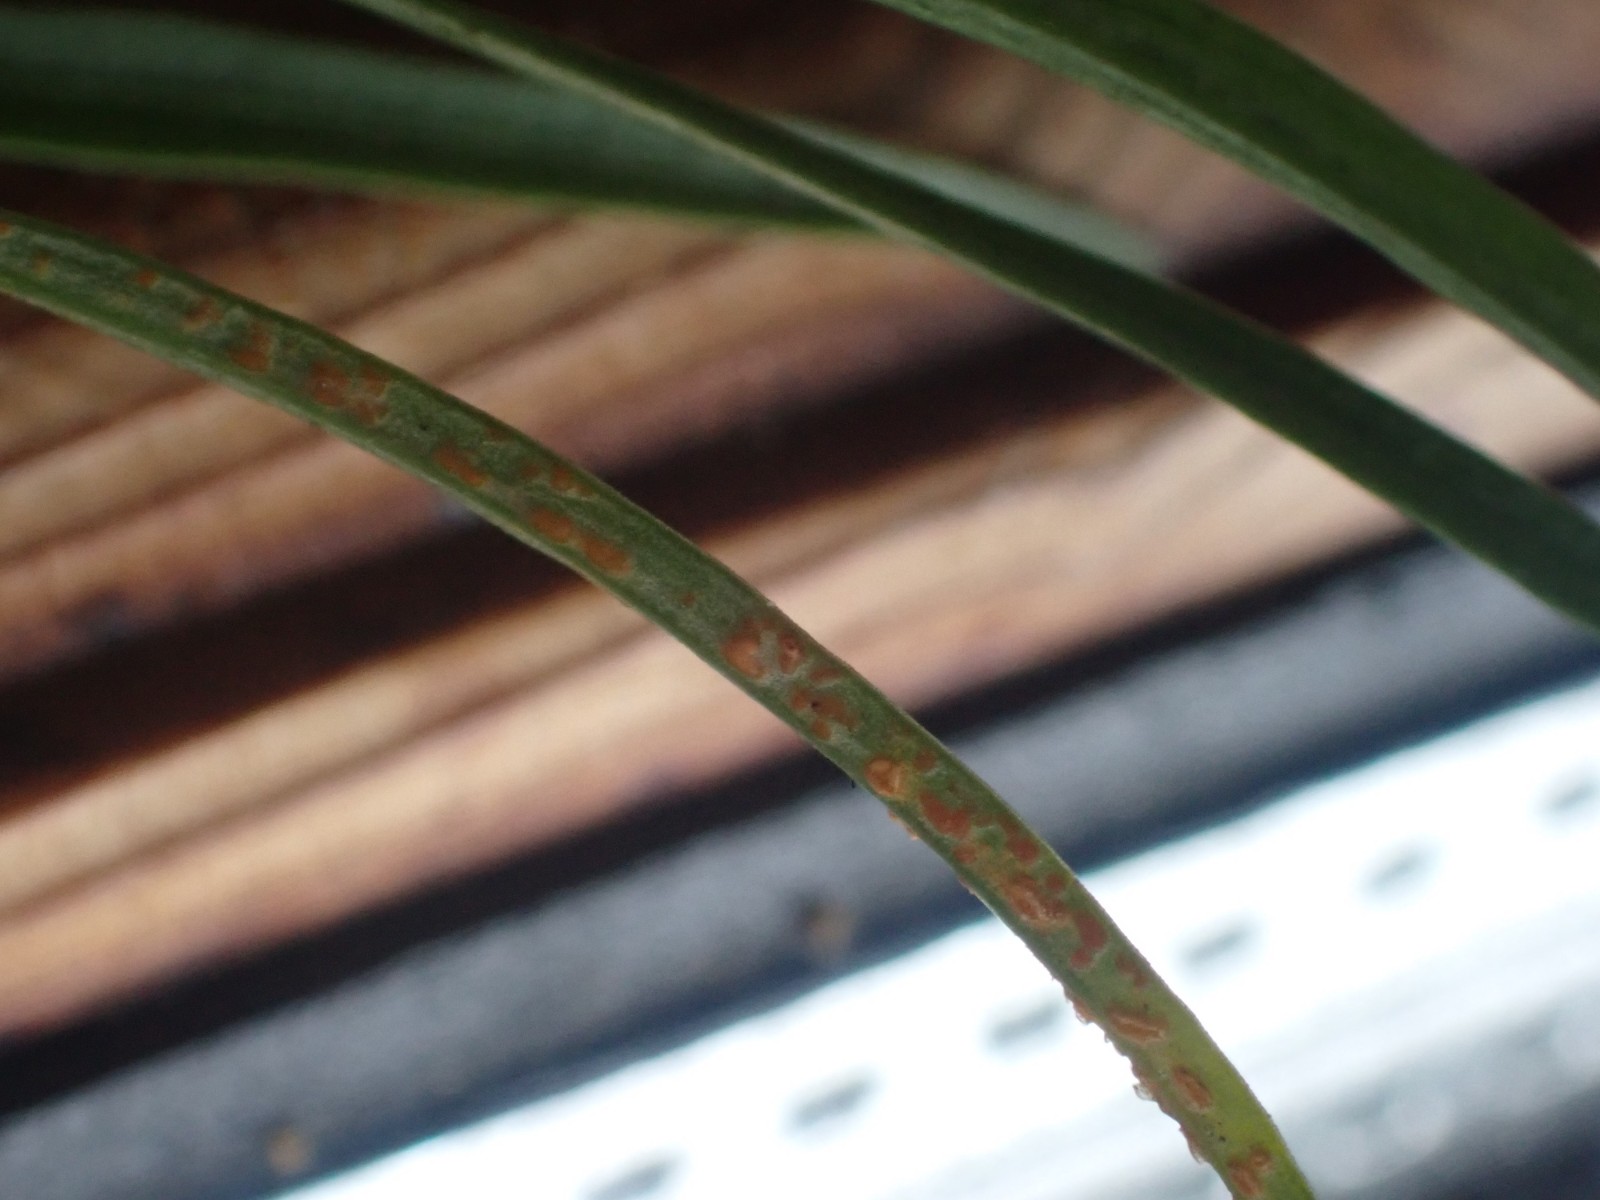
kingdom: Fungi
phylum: Basidiomycota
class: Pucciniomycetes
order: Pucciniales
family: Coleosporiaceae
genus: Coleosporium
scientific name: Coleosporium tussilaginis
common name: almindelig fyrrenålerust
